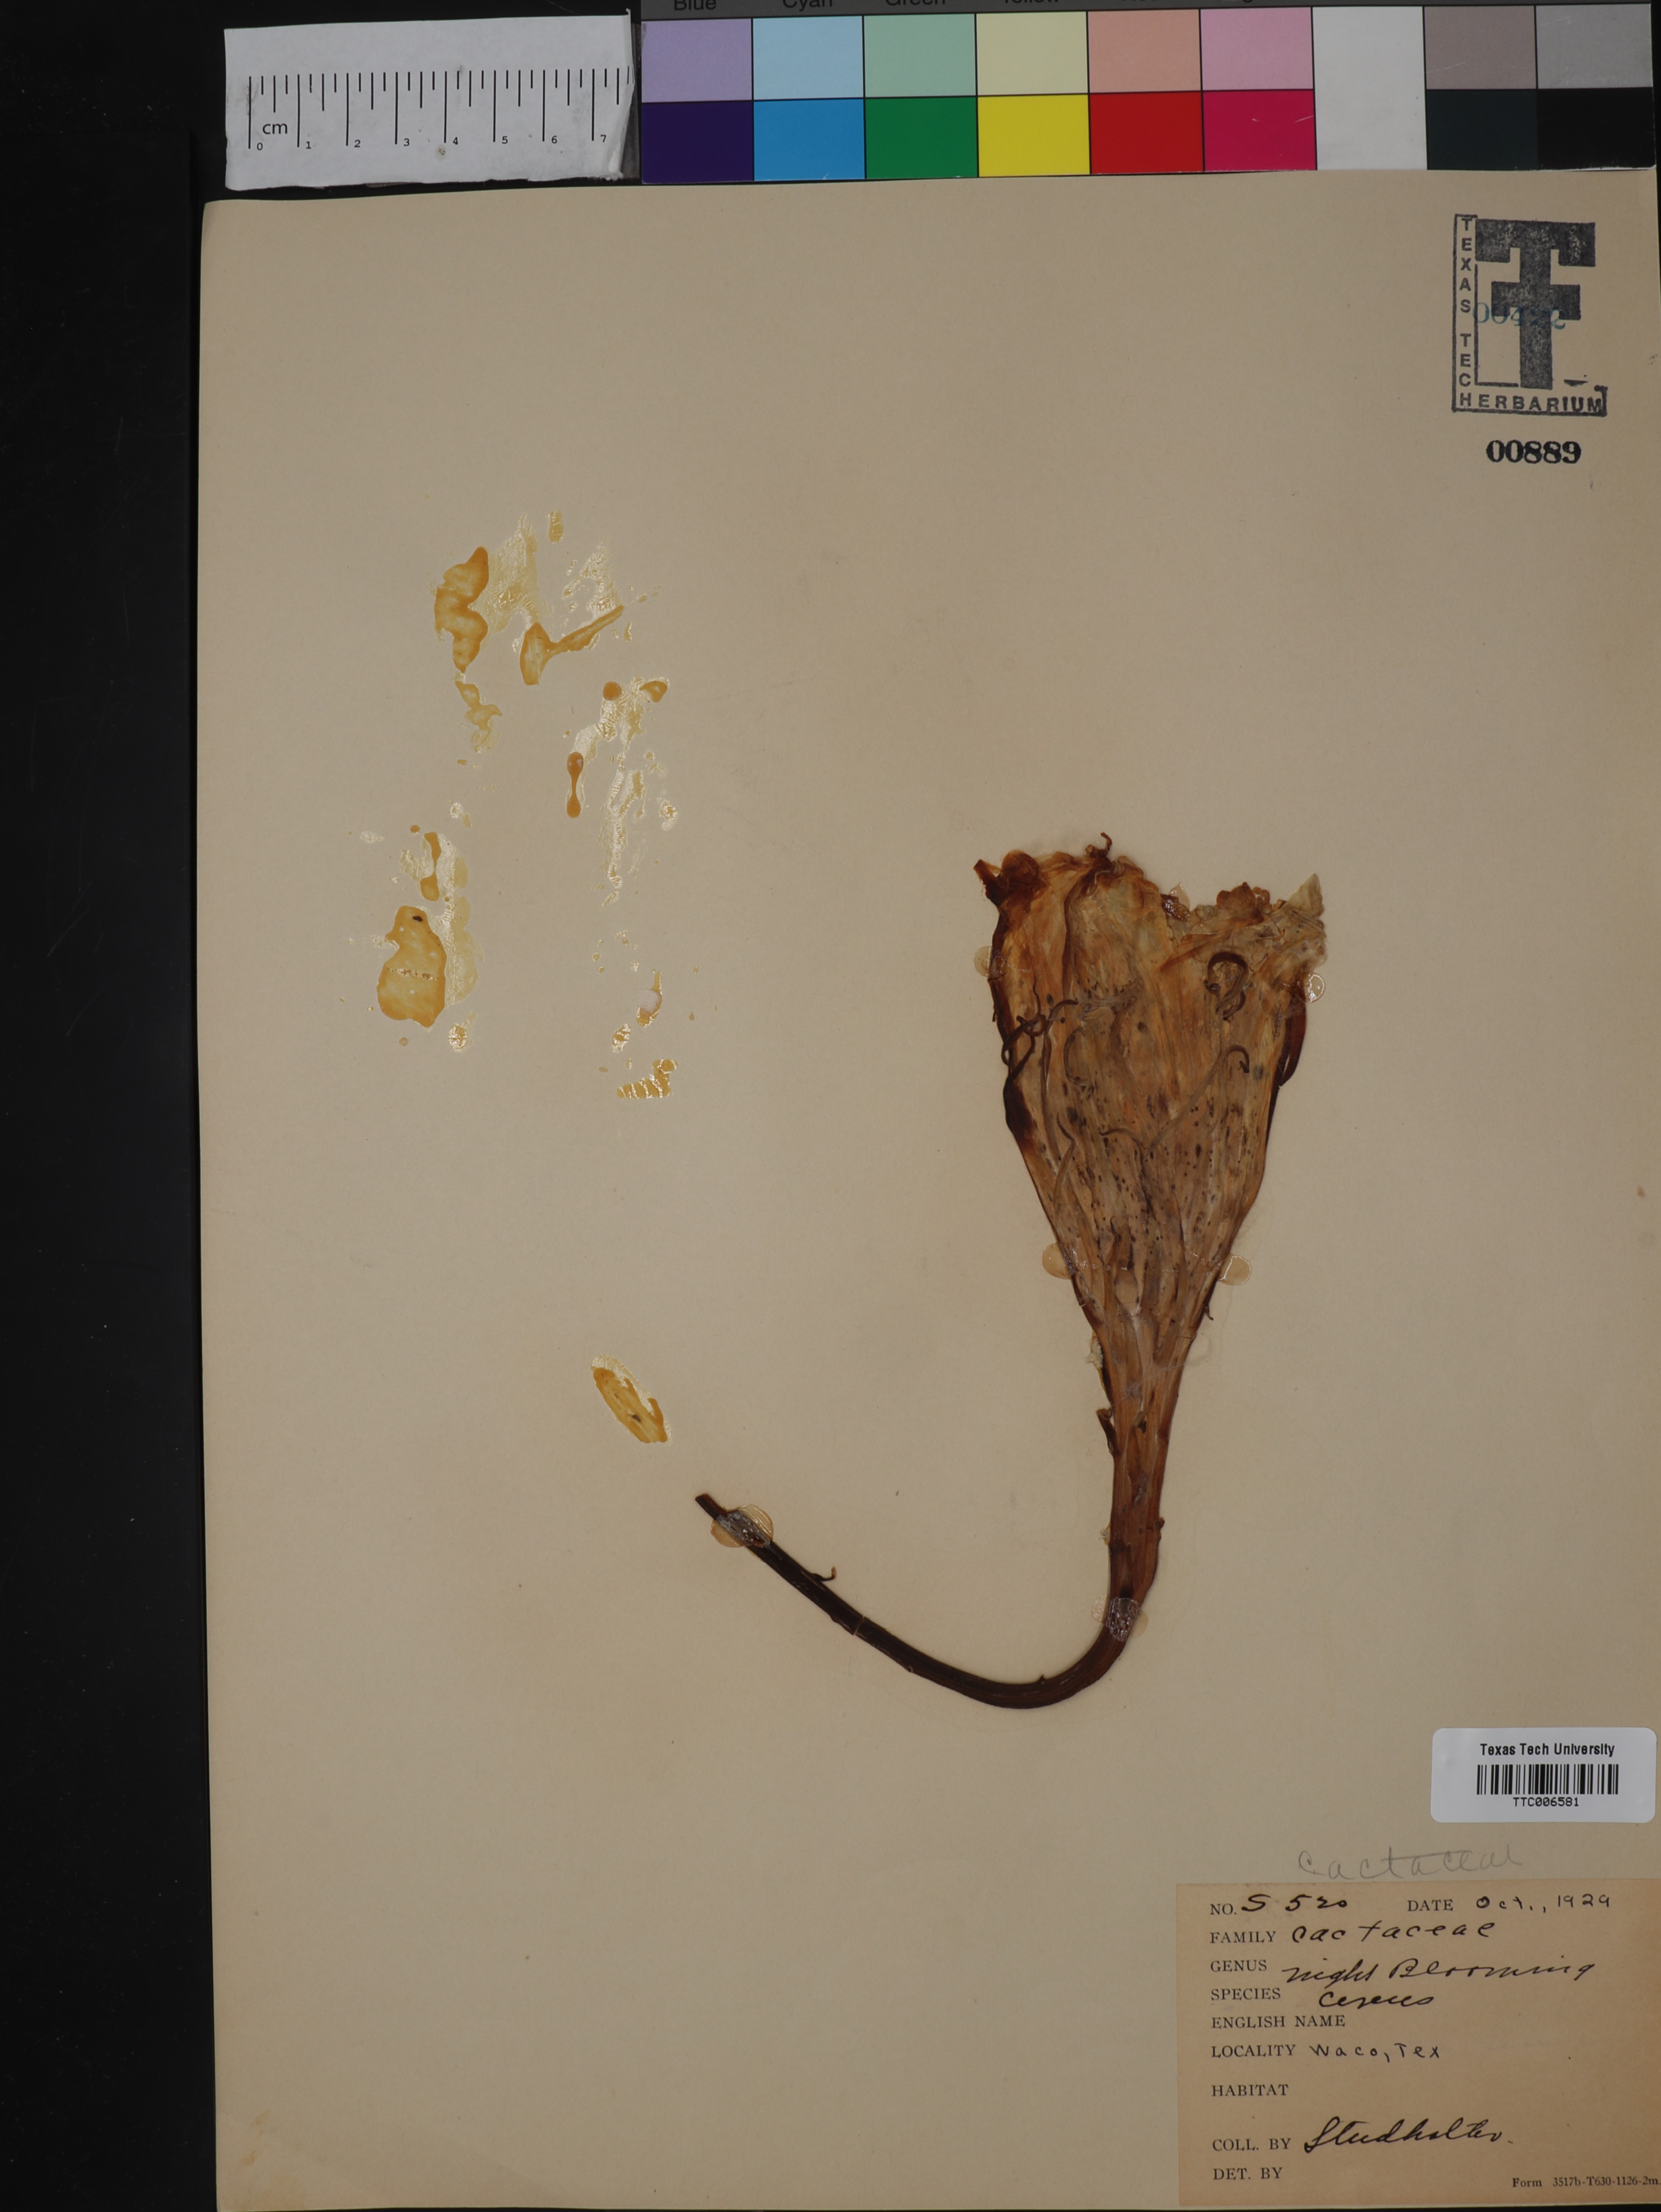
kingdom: Plantae
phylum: Tracheophyta
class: Magnoliopsida
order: Caryophyllales
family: Cactaceae
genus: Cereus
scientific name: Cereus
